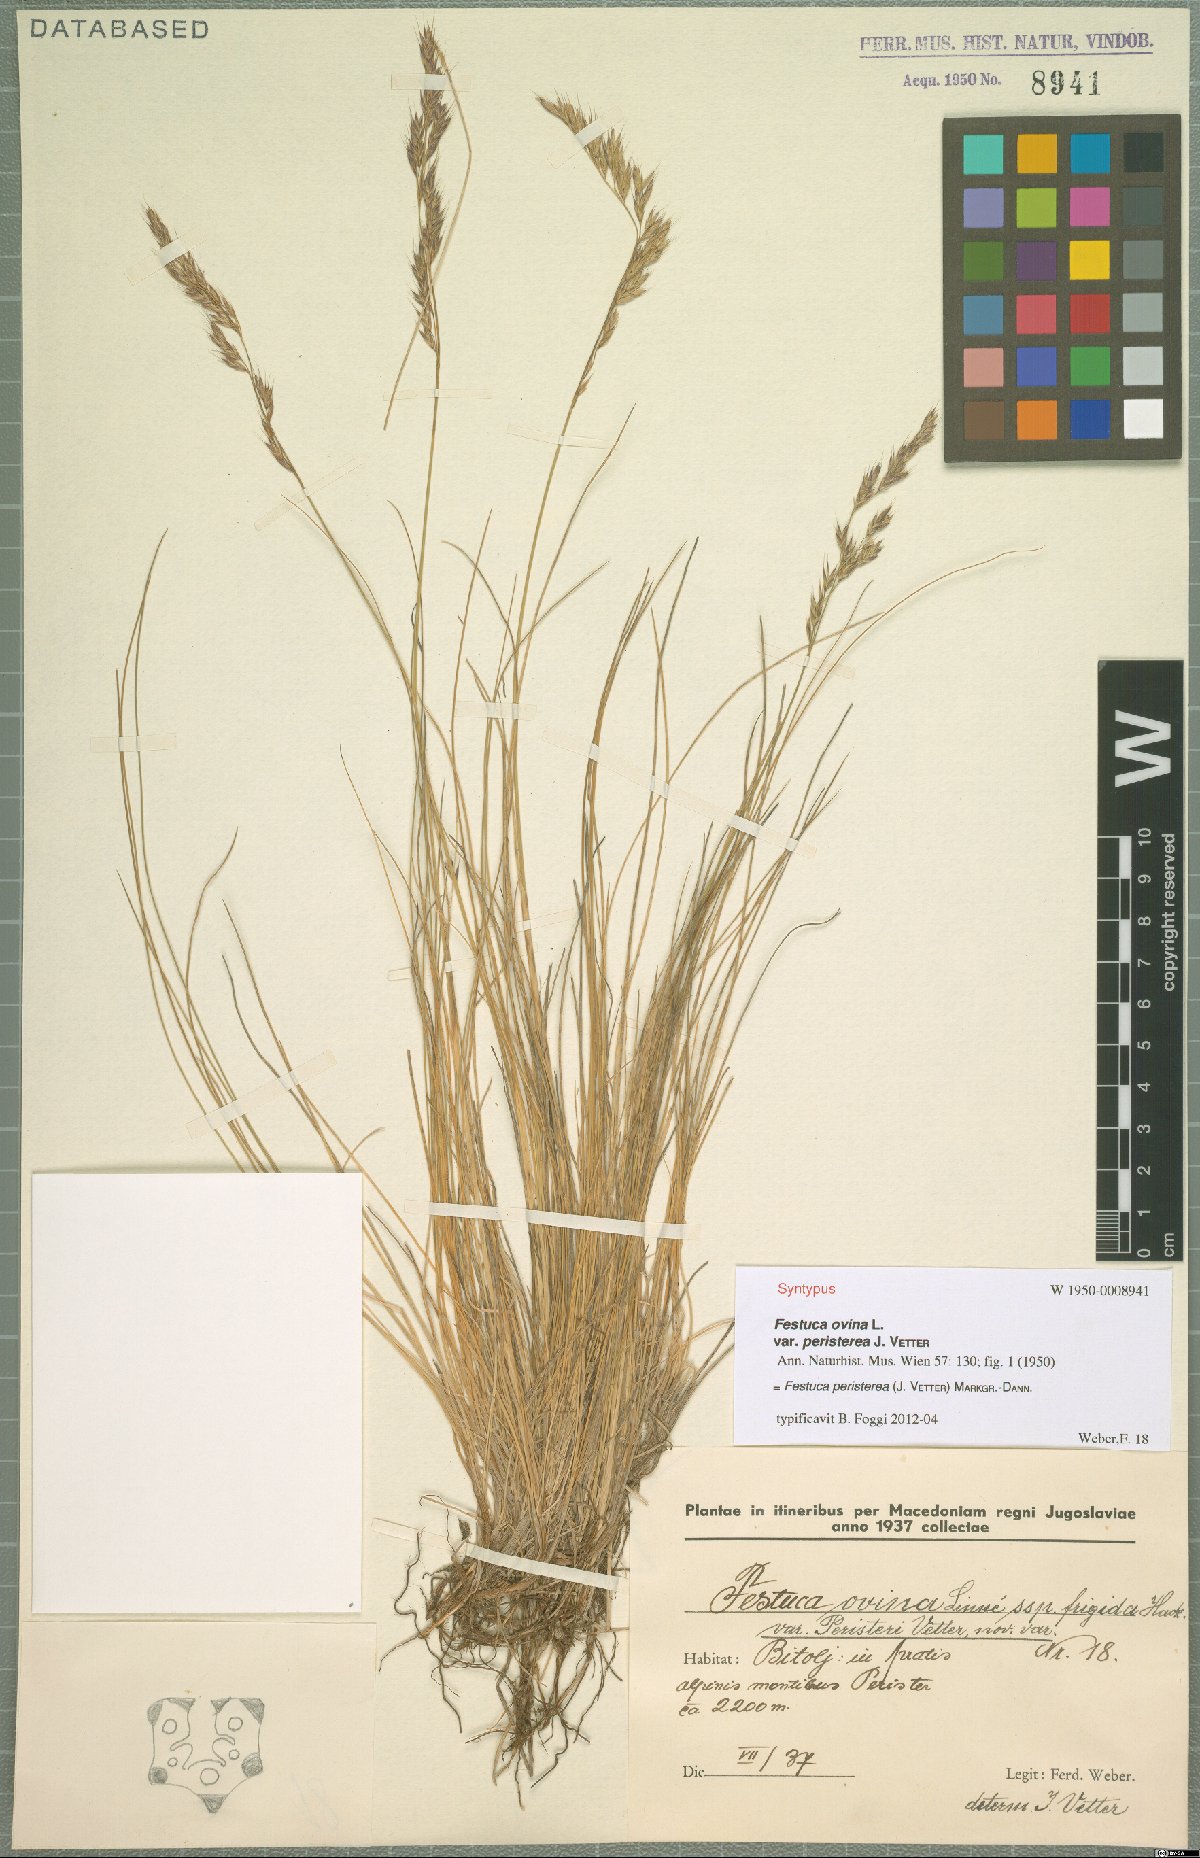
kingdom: Plantae
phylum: Tracheophyta
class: Liliopsida
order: Poales
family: Poaceae
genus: Festuca
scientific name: Festuca peristerea
